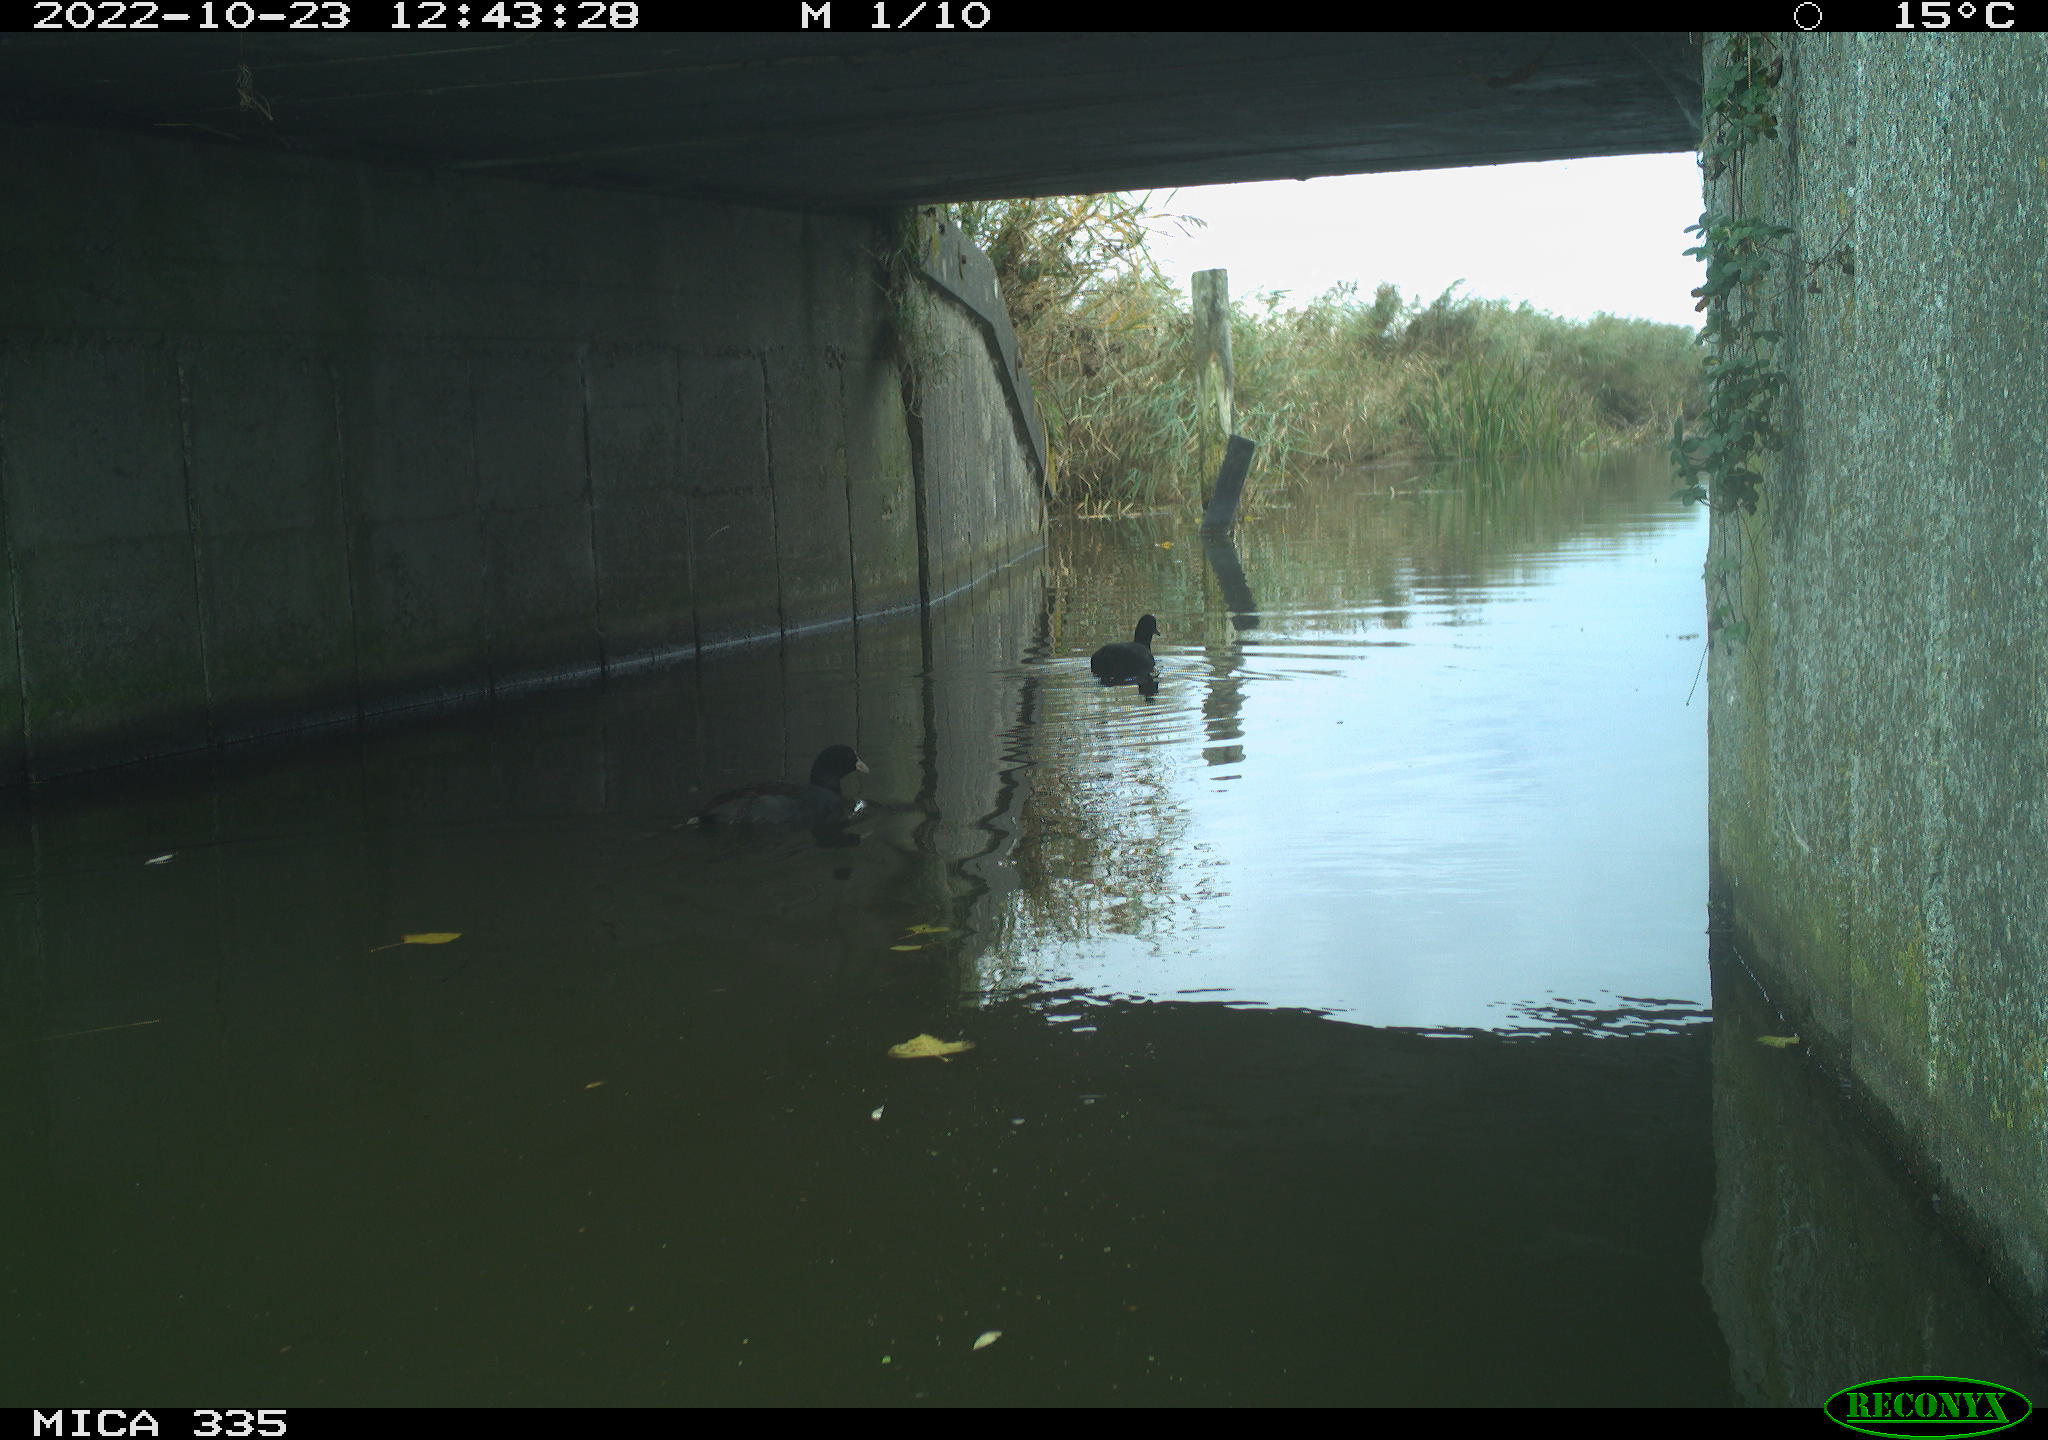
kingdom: Animalia
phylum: Chordata
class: Aves
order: Gruiformes
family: Rallidae
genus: Fulica
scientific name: Fulica atra
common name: Eurasian coot
